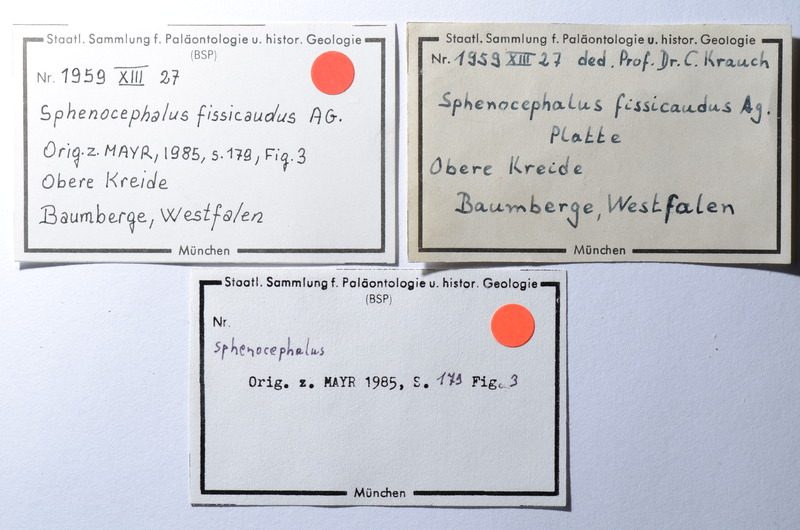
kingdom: Animalia
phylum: Chordata
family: Dorypteridae
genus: Sphenocephalus
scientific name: Sphenocephalus fissicaudus
